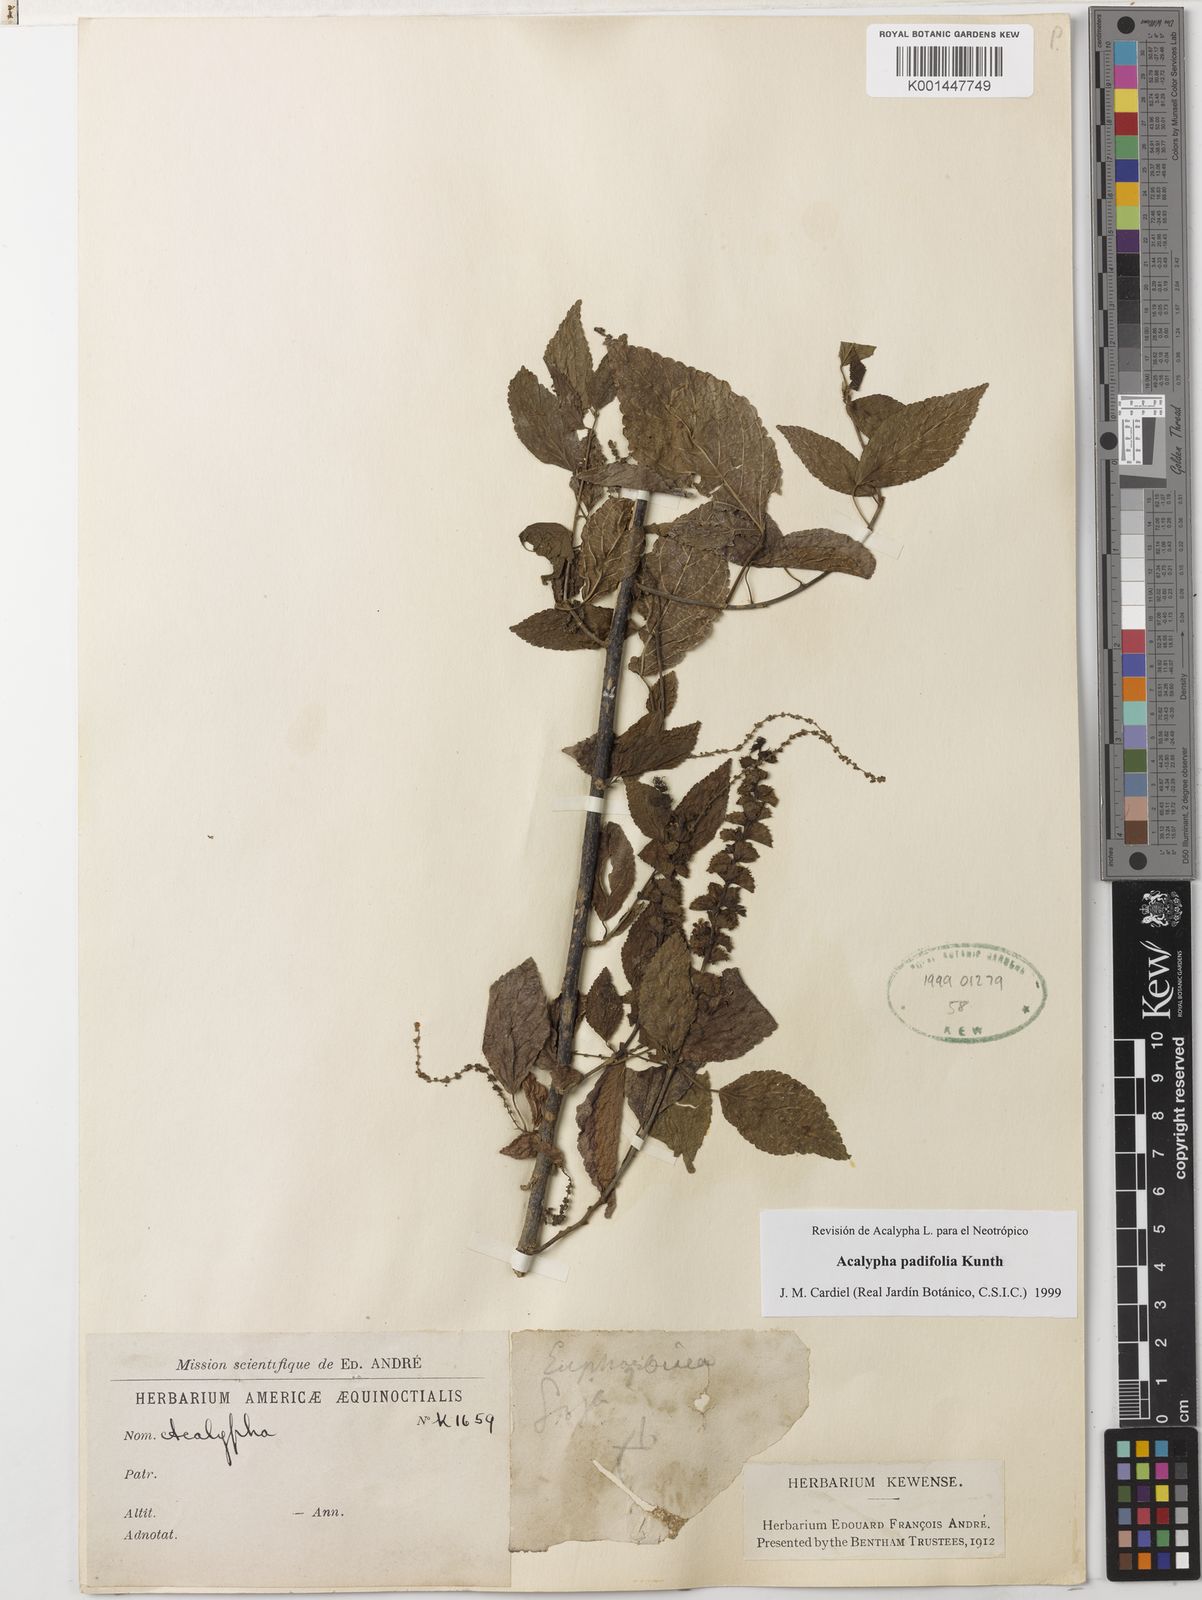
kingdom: Plantae
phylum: Tracheophyta
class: Magnoliopsida
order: Malpighiales
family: Euphorbiaceae
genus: Acalypha
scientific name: Acalypha padifolia
